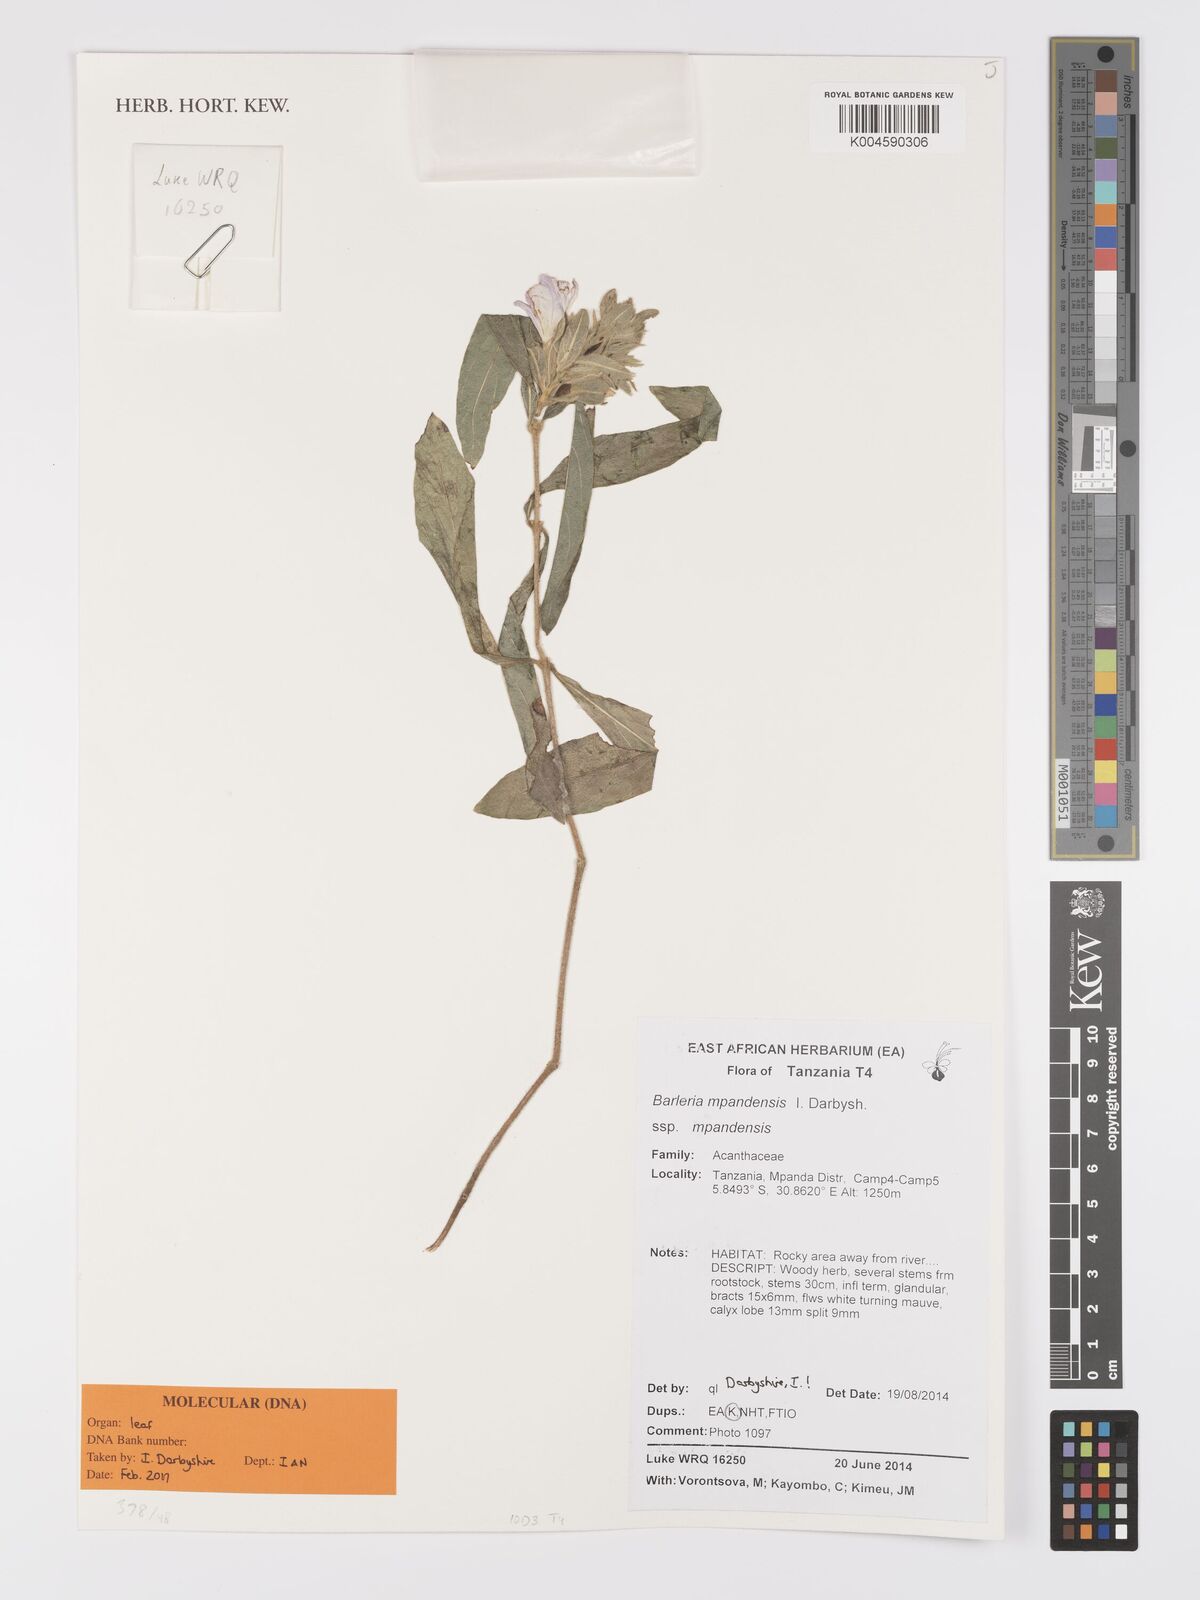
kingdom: Plantae
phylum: Tracheophyta
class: Magnoliopsida
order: Lamiales
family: Acanthaceae
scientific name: Acanthaceae
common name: Acanthaceae
